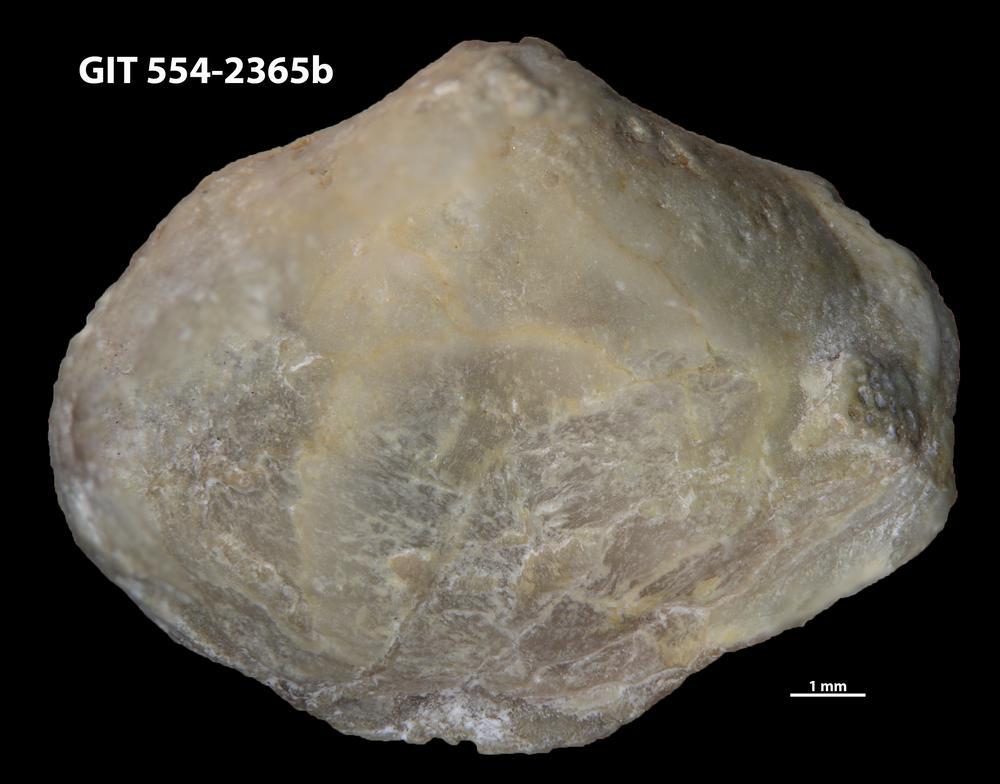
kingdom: Animalia
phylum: Brachiopoda
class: Rhynchonellata
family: Triplesiidae
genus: Triplesia
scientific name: Triplesia maennili
